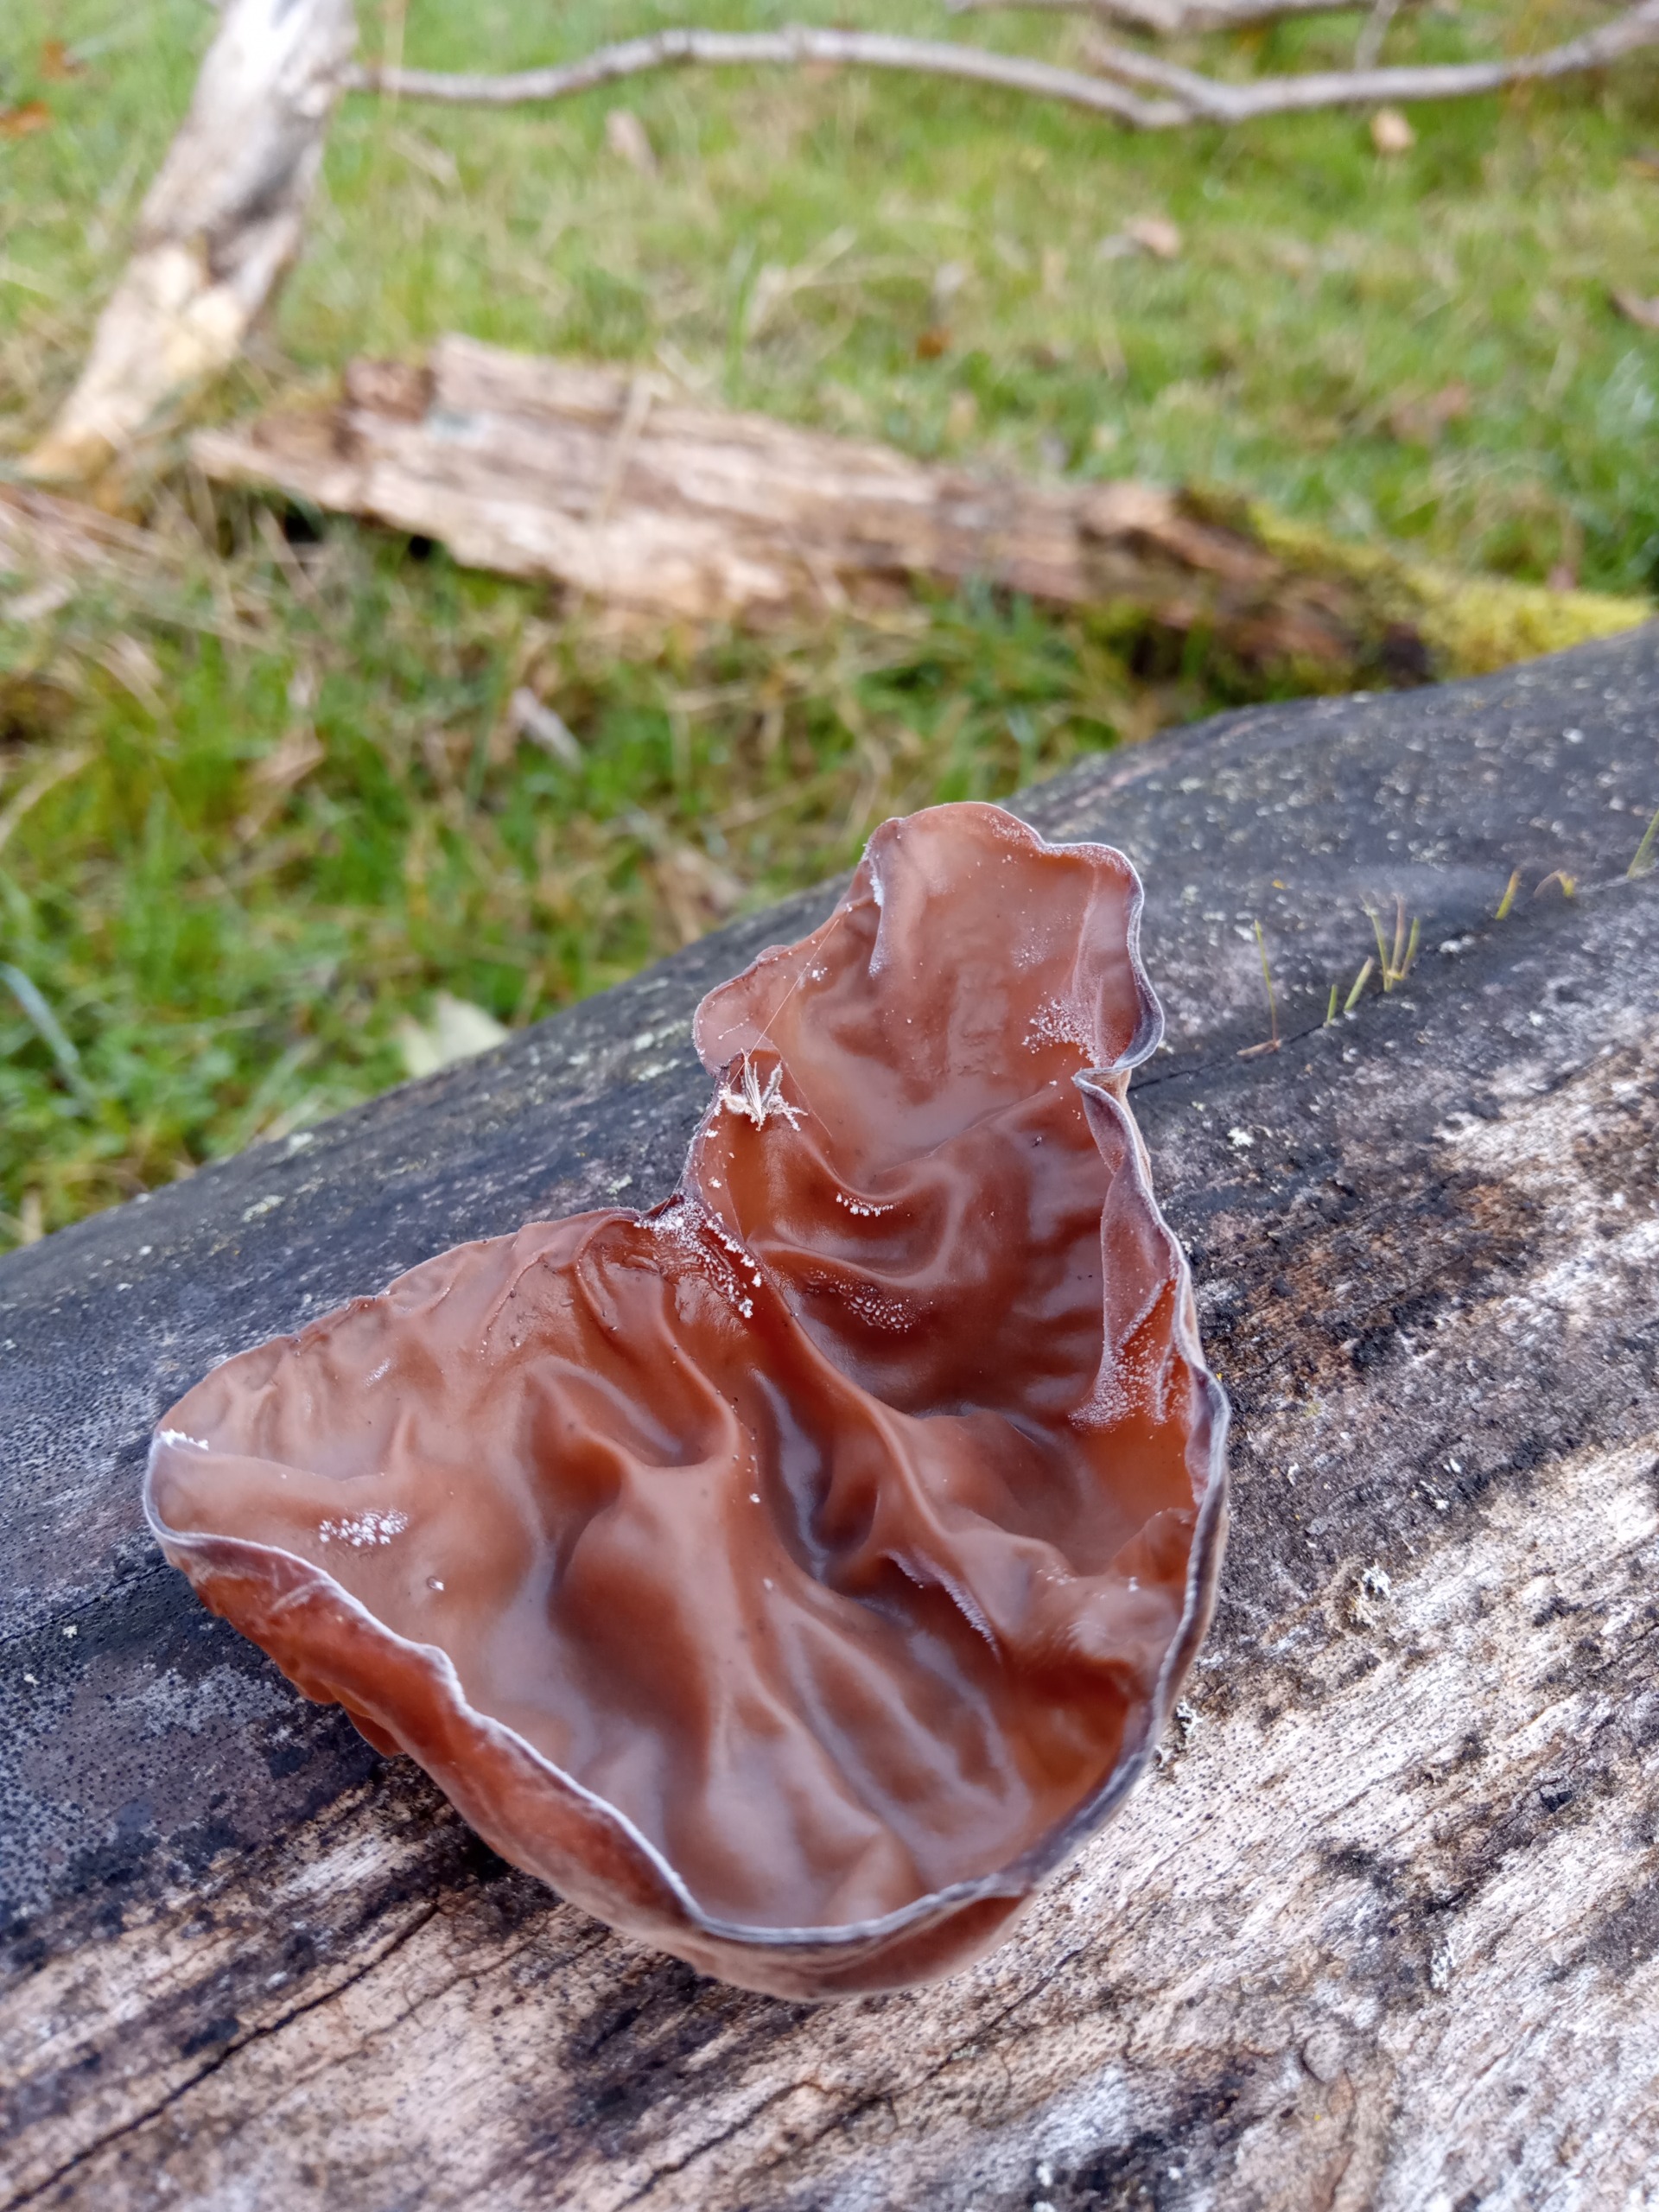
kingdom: Fungi
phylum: Basidiomycota
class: Agaricomycetes
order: Auriculariales
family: Auriculariaceae
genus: Auricularia
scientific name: Auricularia auricula-judae
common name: Almindelig judasøre
